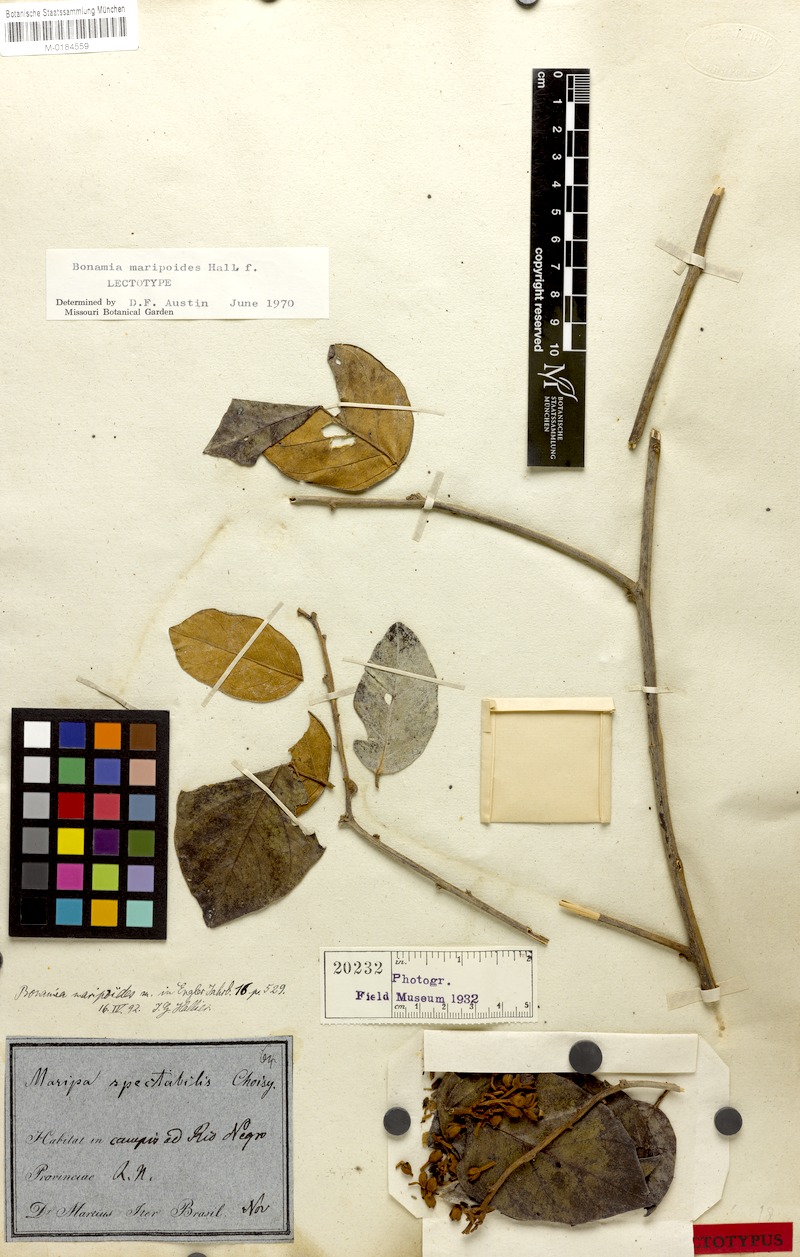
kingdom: Plantae
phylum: Tracheophyta
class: Magnoliopsida
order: Solanales
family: Convolvulaceae
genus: Bonamia
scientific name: Bonamia maripoides
